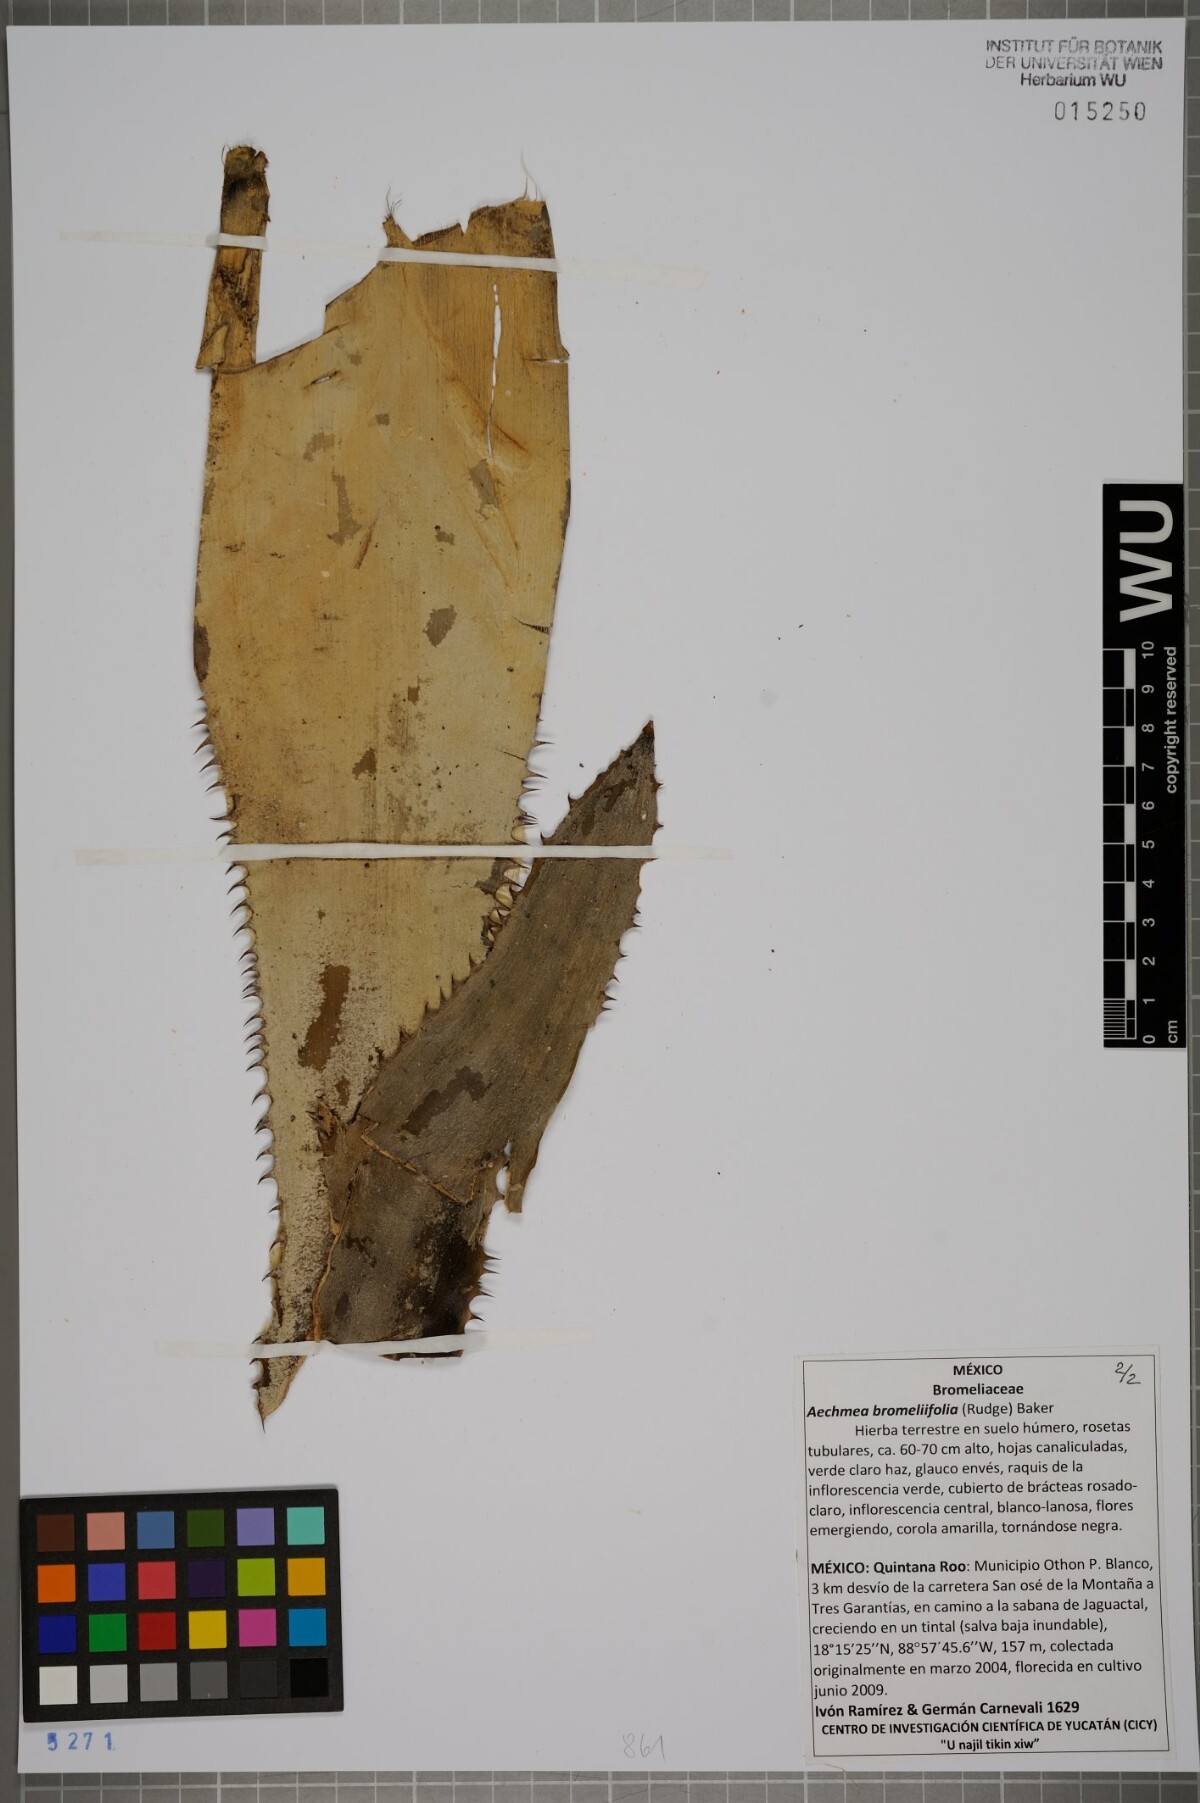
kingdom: Plantae
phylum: Tracheophyta
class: Liliopsida
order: Poales
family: Bromeliaceae
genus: Aechmea
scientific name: Aechmea bromeliifolia
